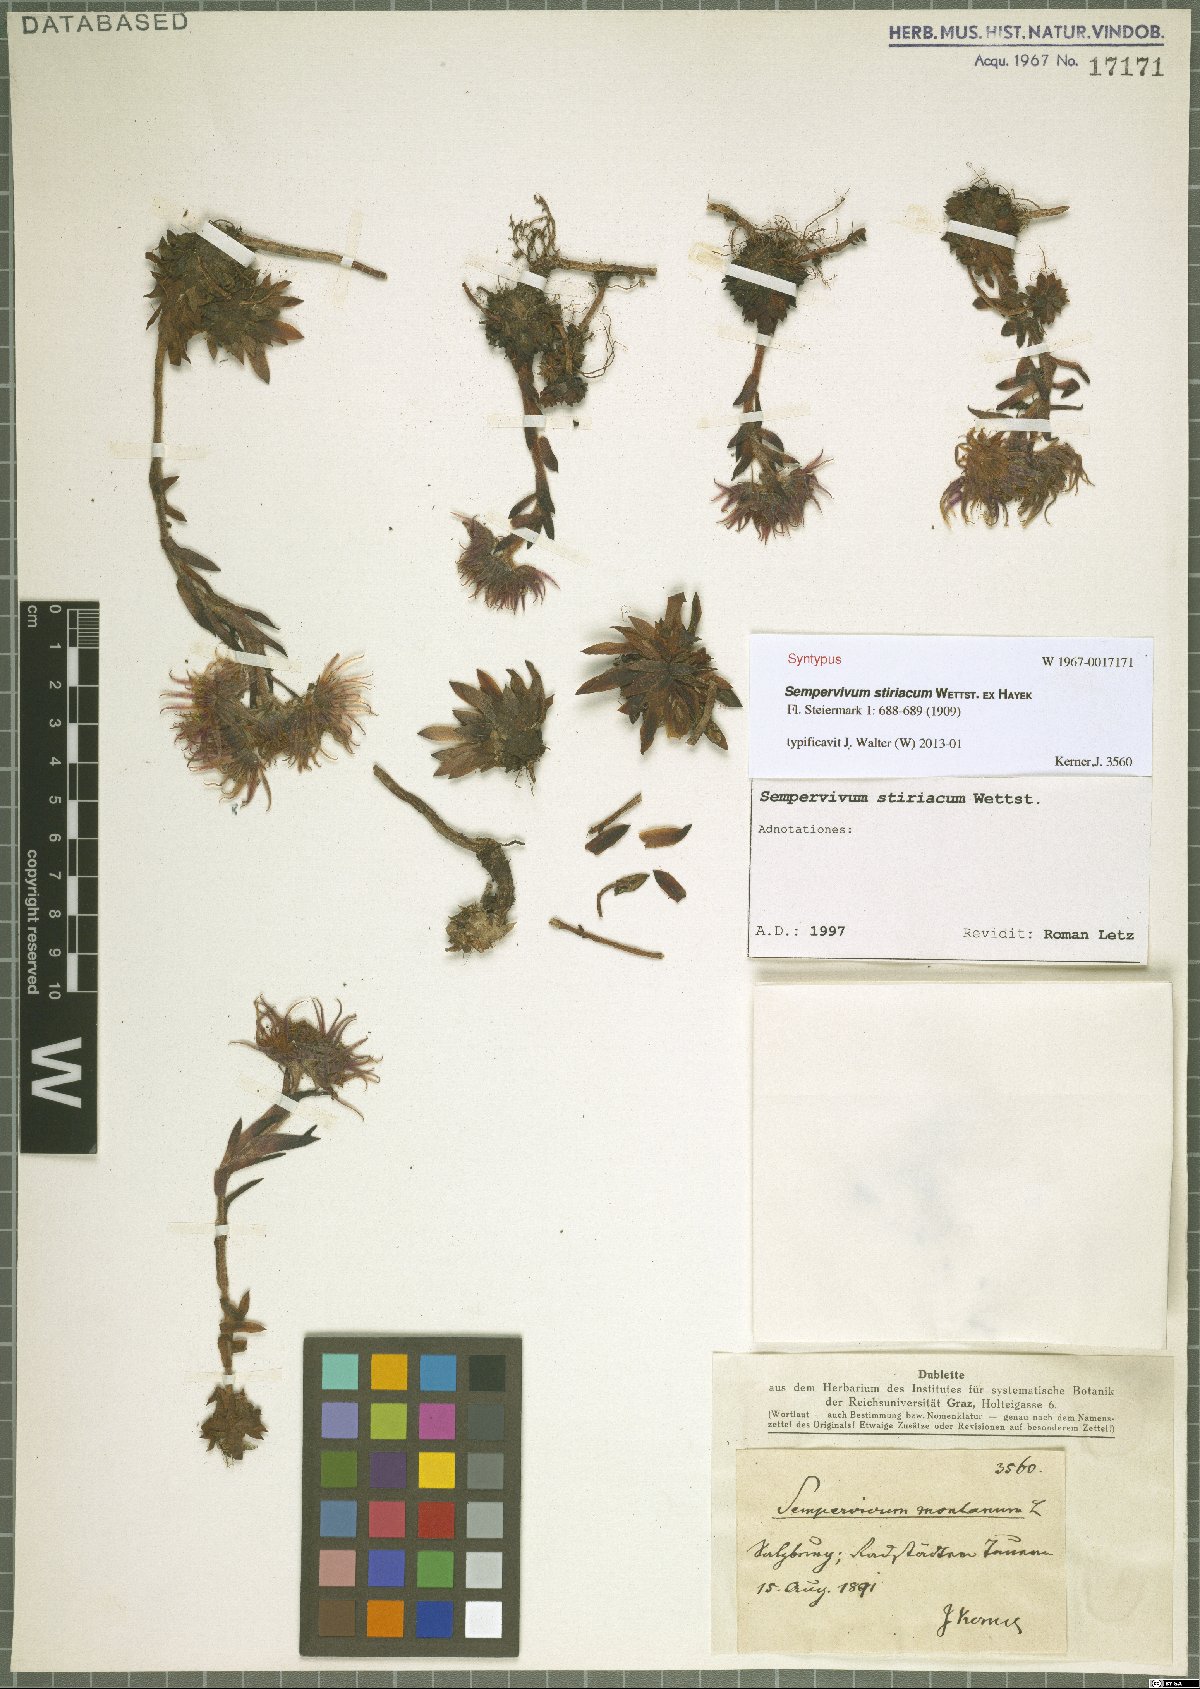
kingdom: Plantae
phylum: Tracheophyta
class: Magnoliopsida
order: Saxifragales
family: Crassulaceae
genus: Sempervivum
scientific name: Sempervivum montanum
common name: Mountain house-leek
